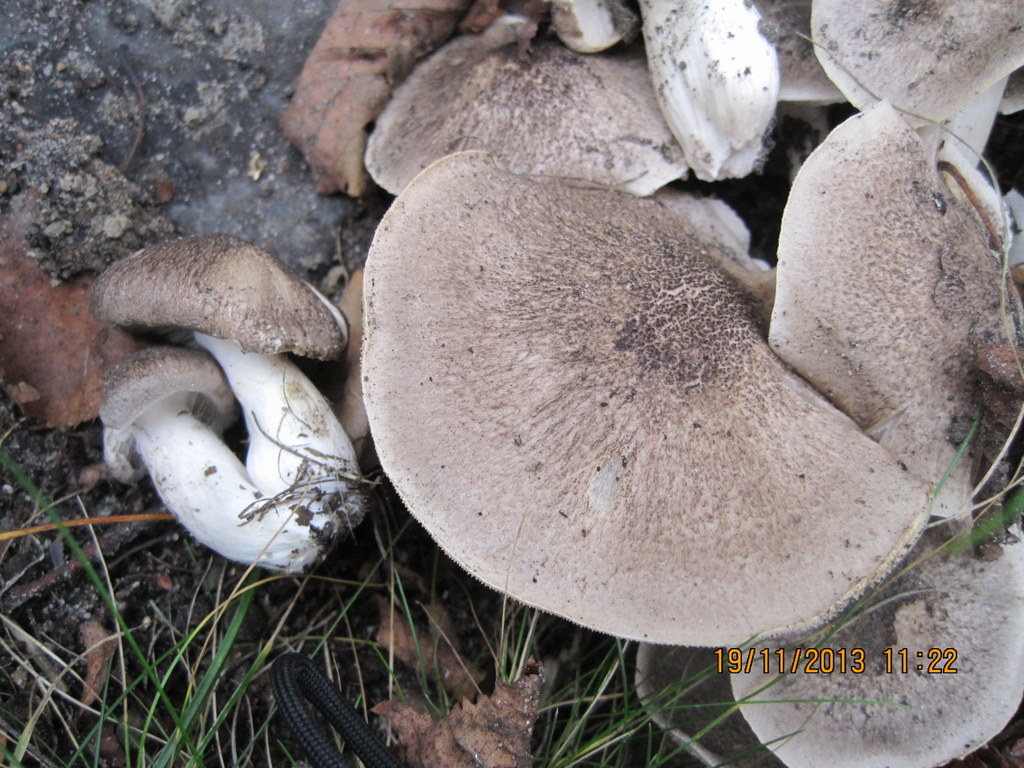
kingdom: Fungi
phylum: Basidiomycota
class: Agaricomycetes
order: Agaricales
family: Tricholomataceae
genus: Tricholoma
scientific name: Tricholoma scalpturatum
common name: gulplettet ridderhat
